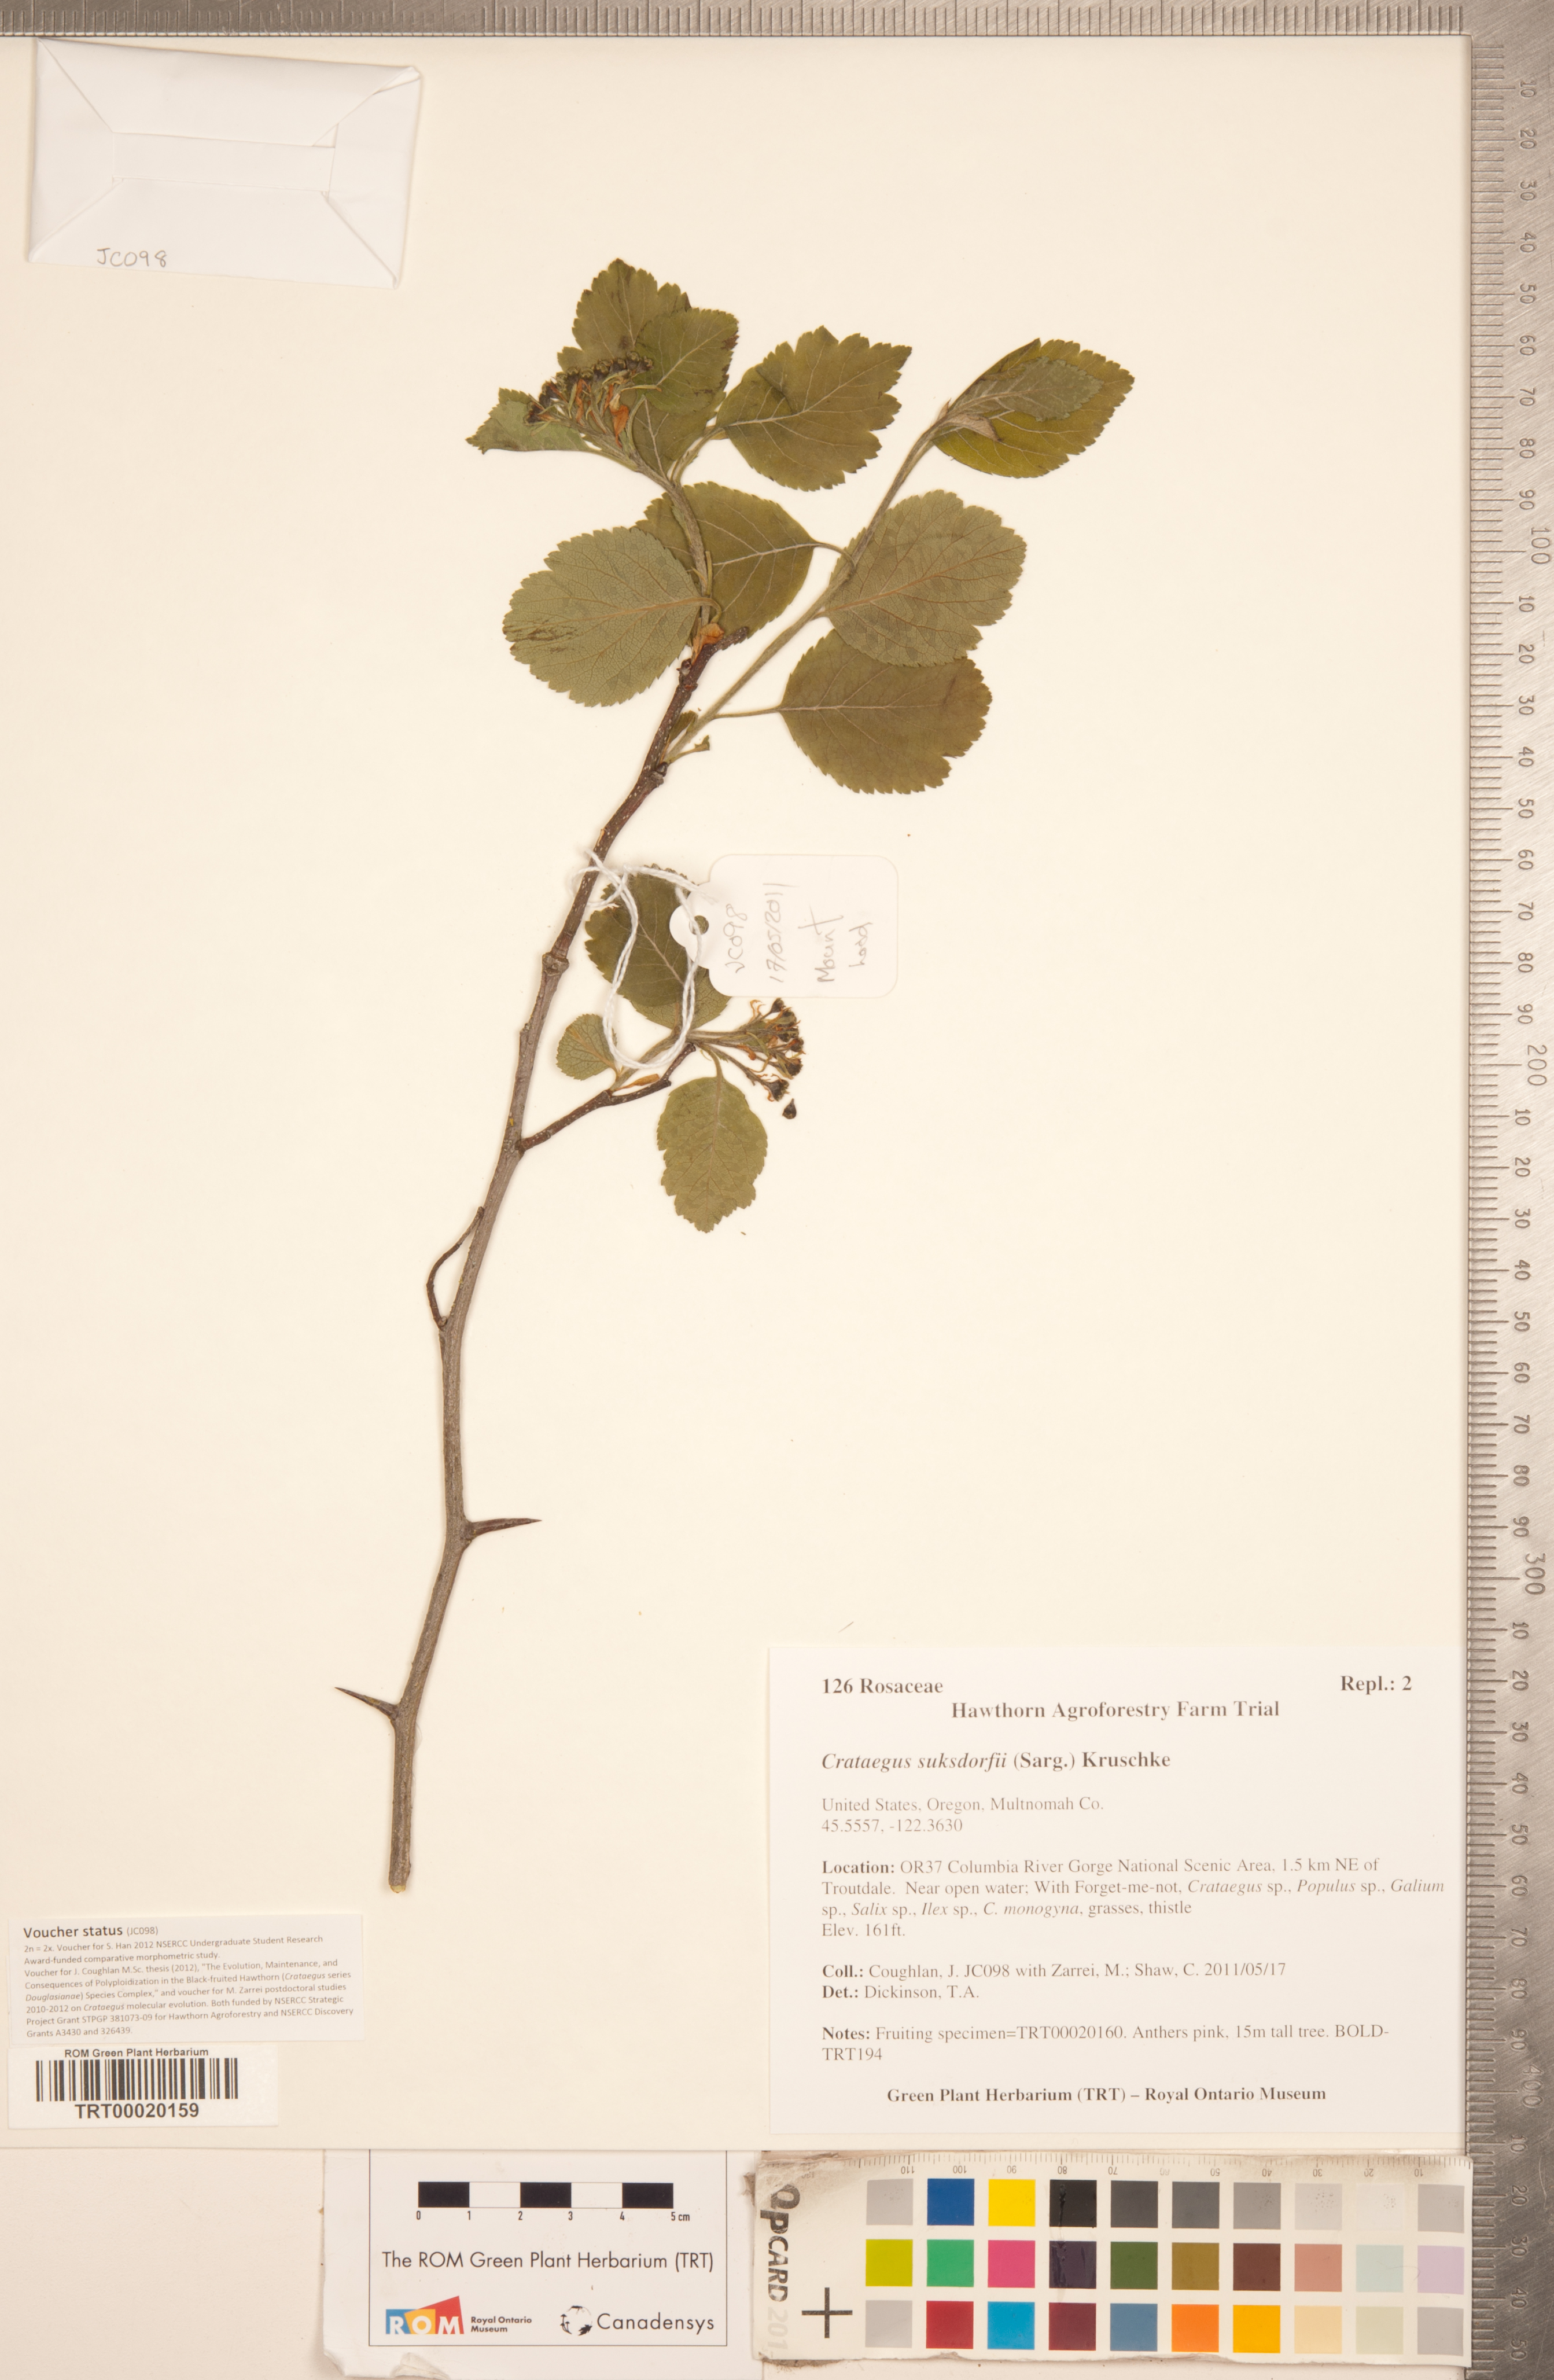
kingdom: Plantae
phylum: Tracheophyta
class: Magnoliopsida
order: Rosales
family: Rosaceae
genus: Crataegus
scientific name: Crataegus gaylussacia
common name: Huckleberry hawthorn
